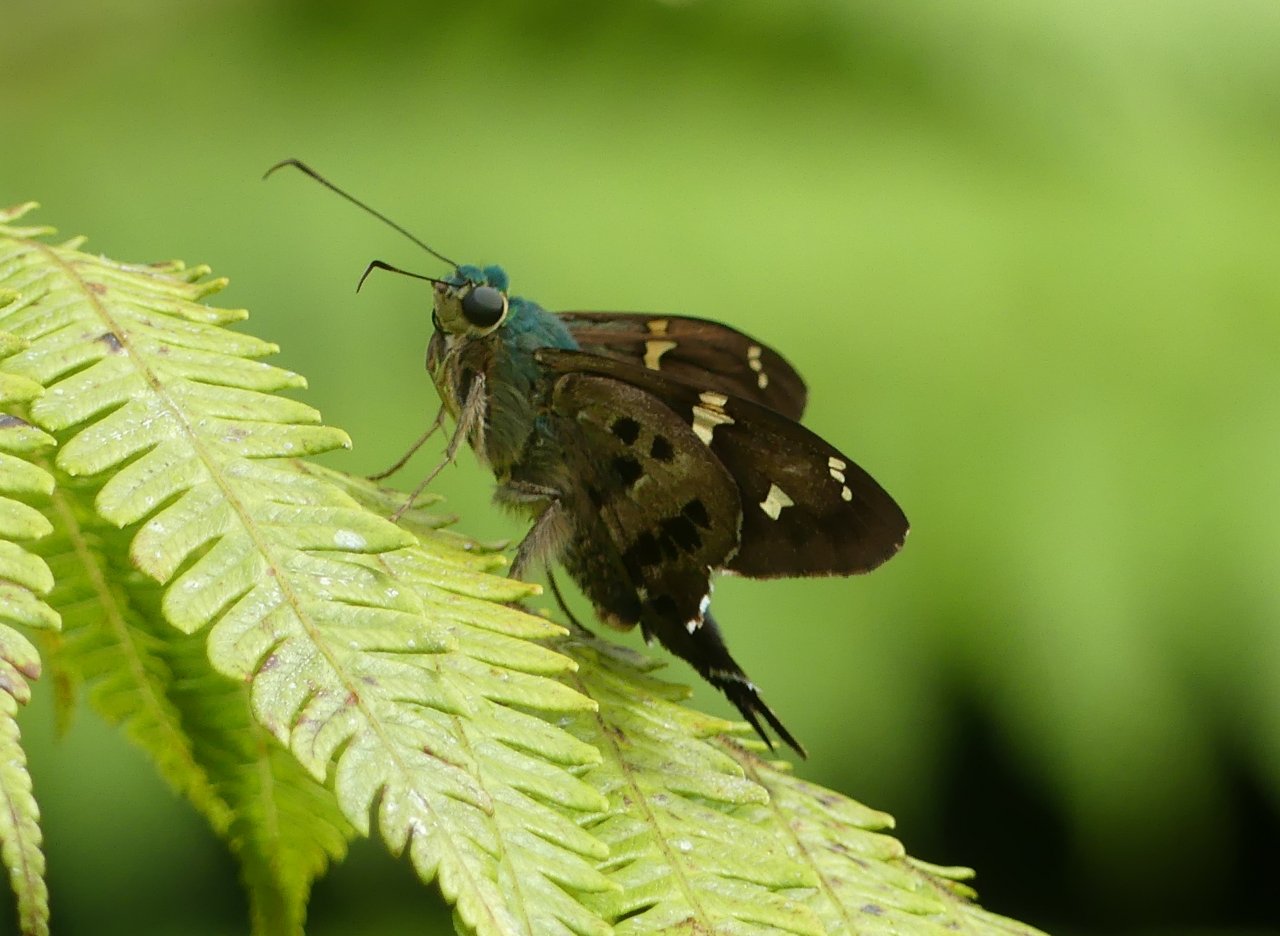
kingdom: Animalia
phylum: Arthropoda
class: Insecta
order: Lepidoptera
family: Hesperiidae
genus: Urbanus
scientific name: Urbanus esmeraldus
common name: Esmeralda Longtail
